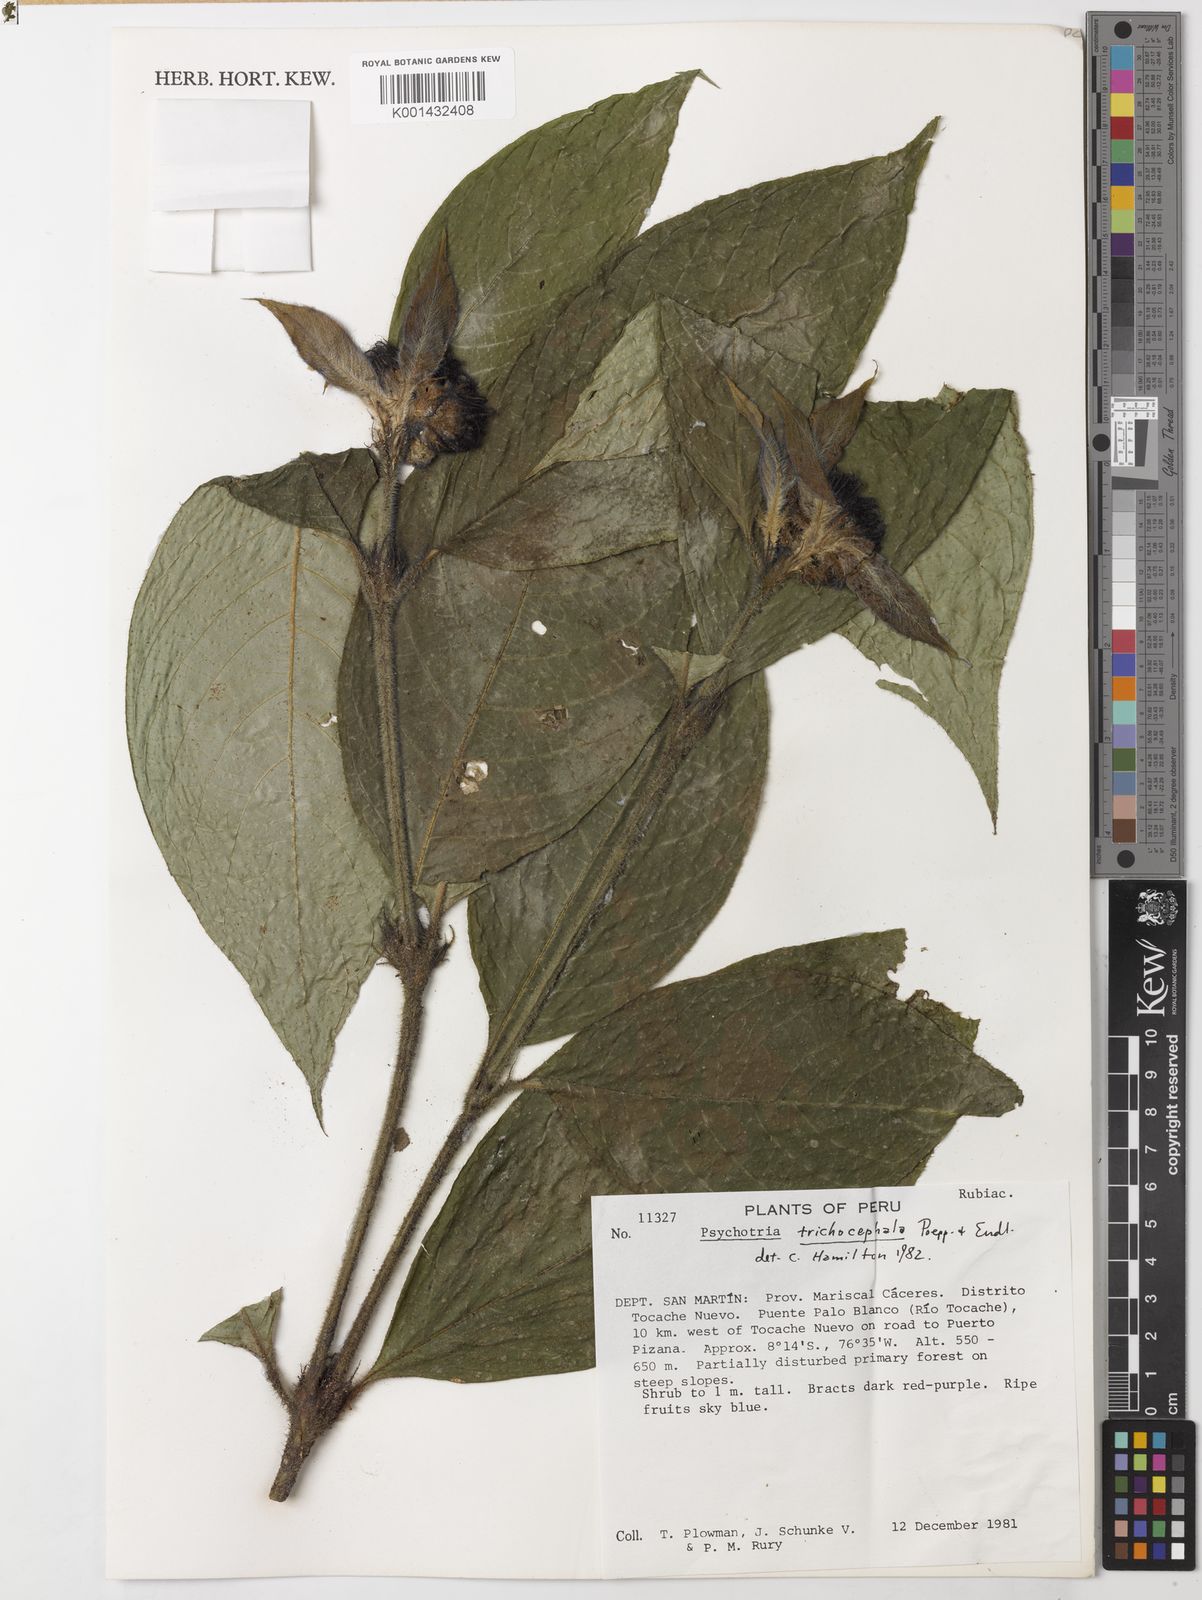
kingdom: Plantae
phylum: Tracheophyta
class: Magnoliopsida
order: Gentianales
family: Rubiaceae
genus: Palicourea
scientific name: Palicourea trichocephala
